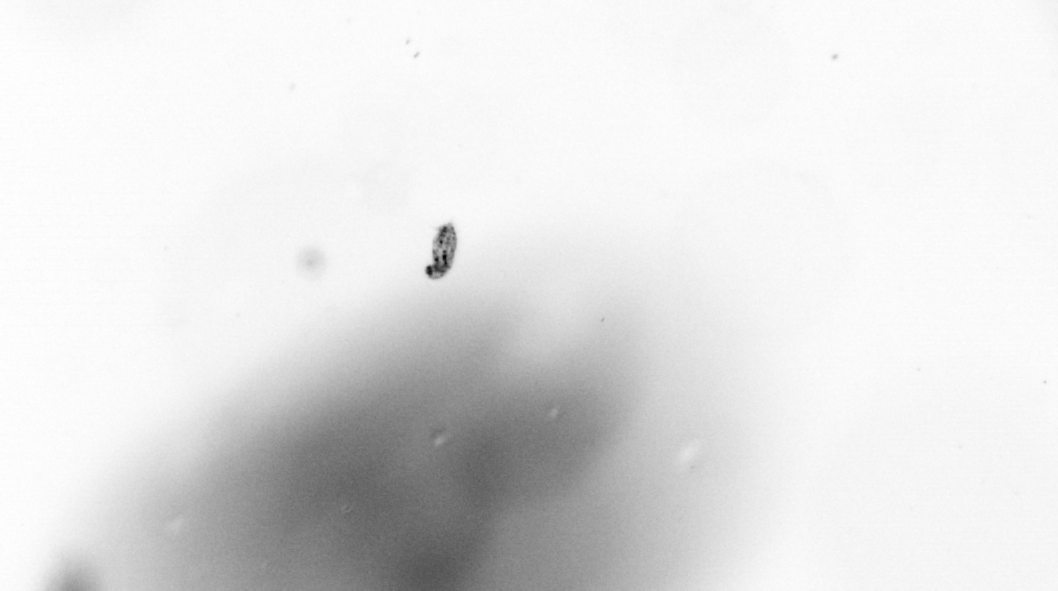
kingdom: Animalia
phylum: Arthropoda
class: Copepoda
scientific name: Copepoda
